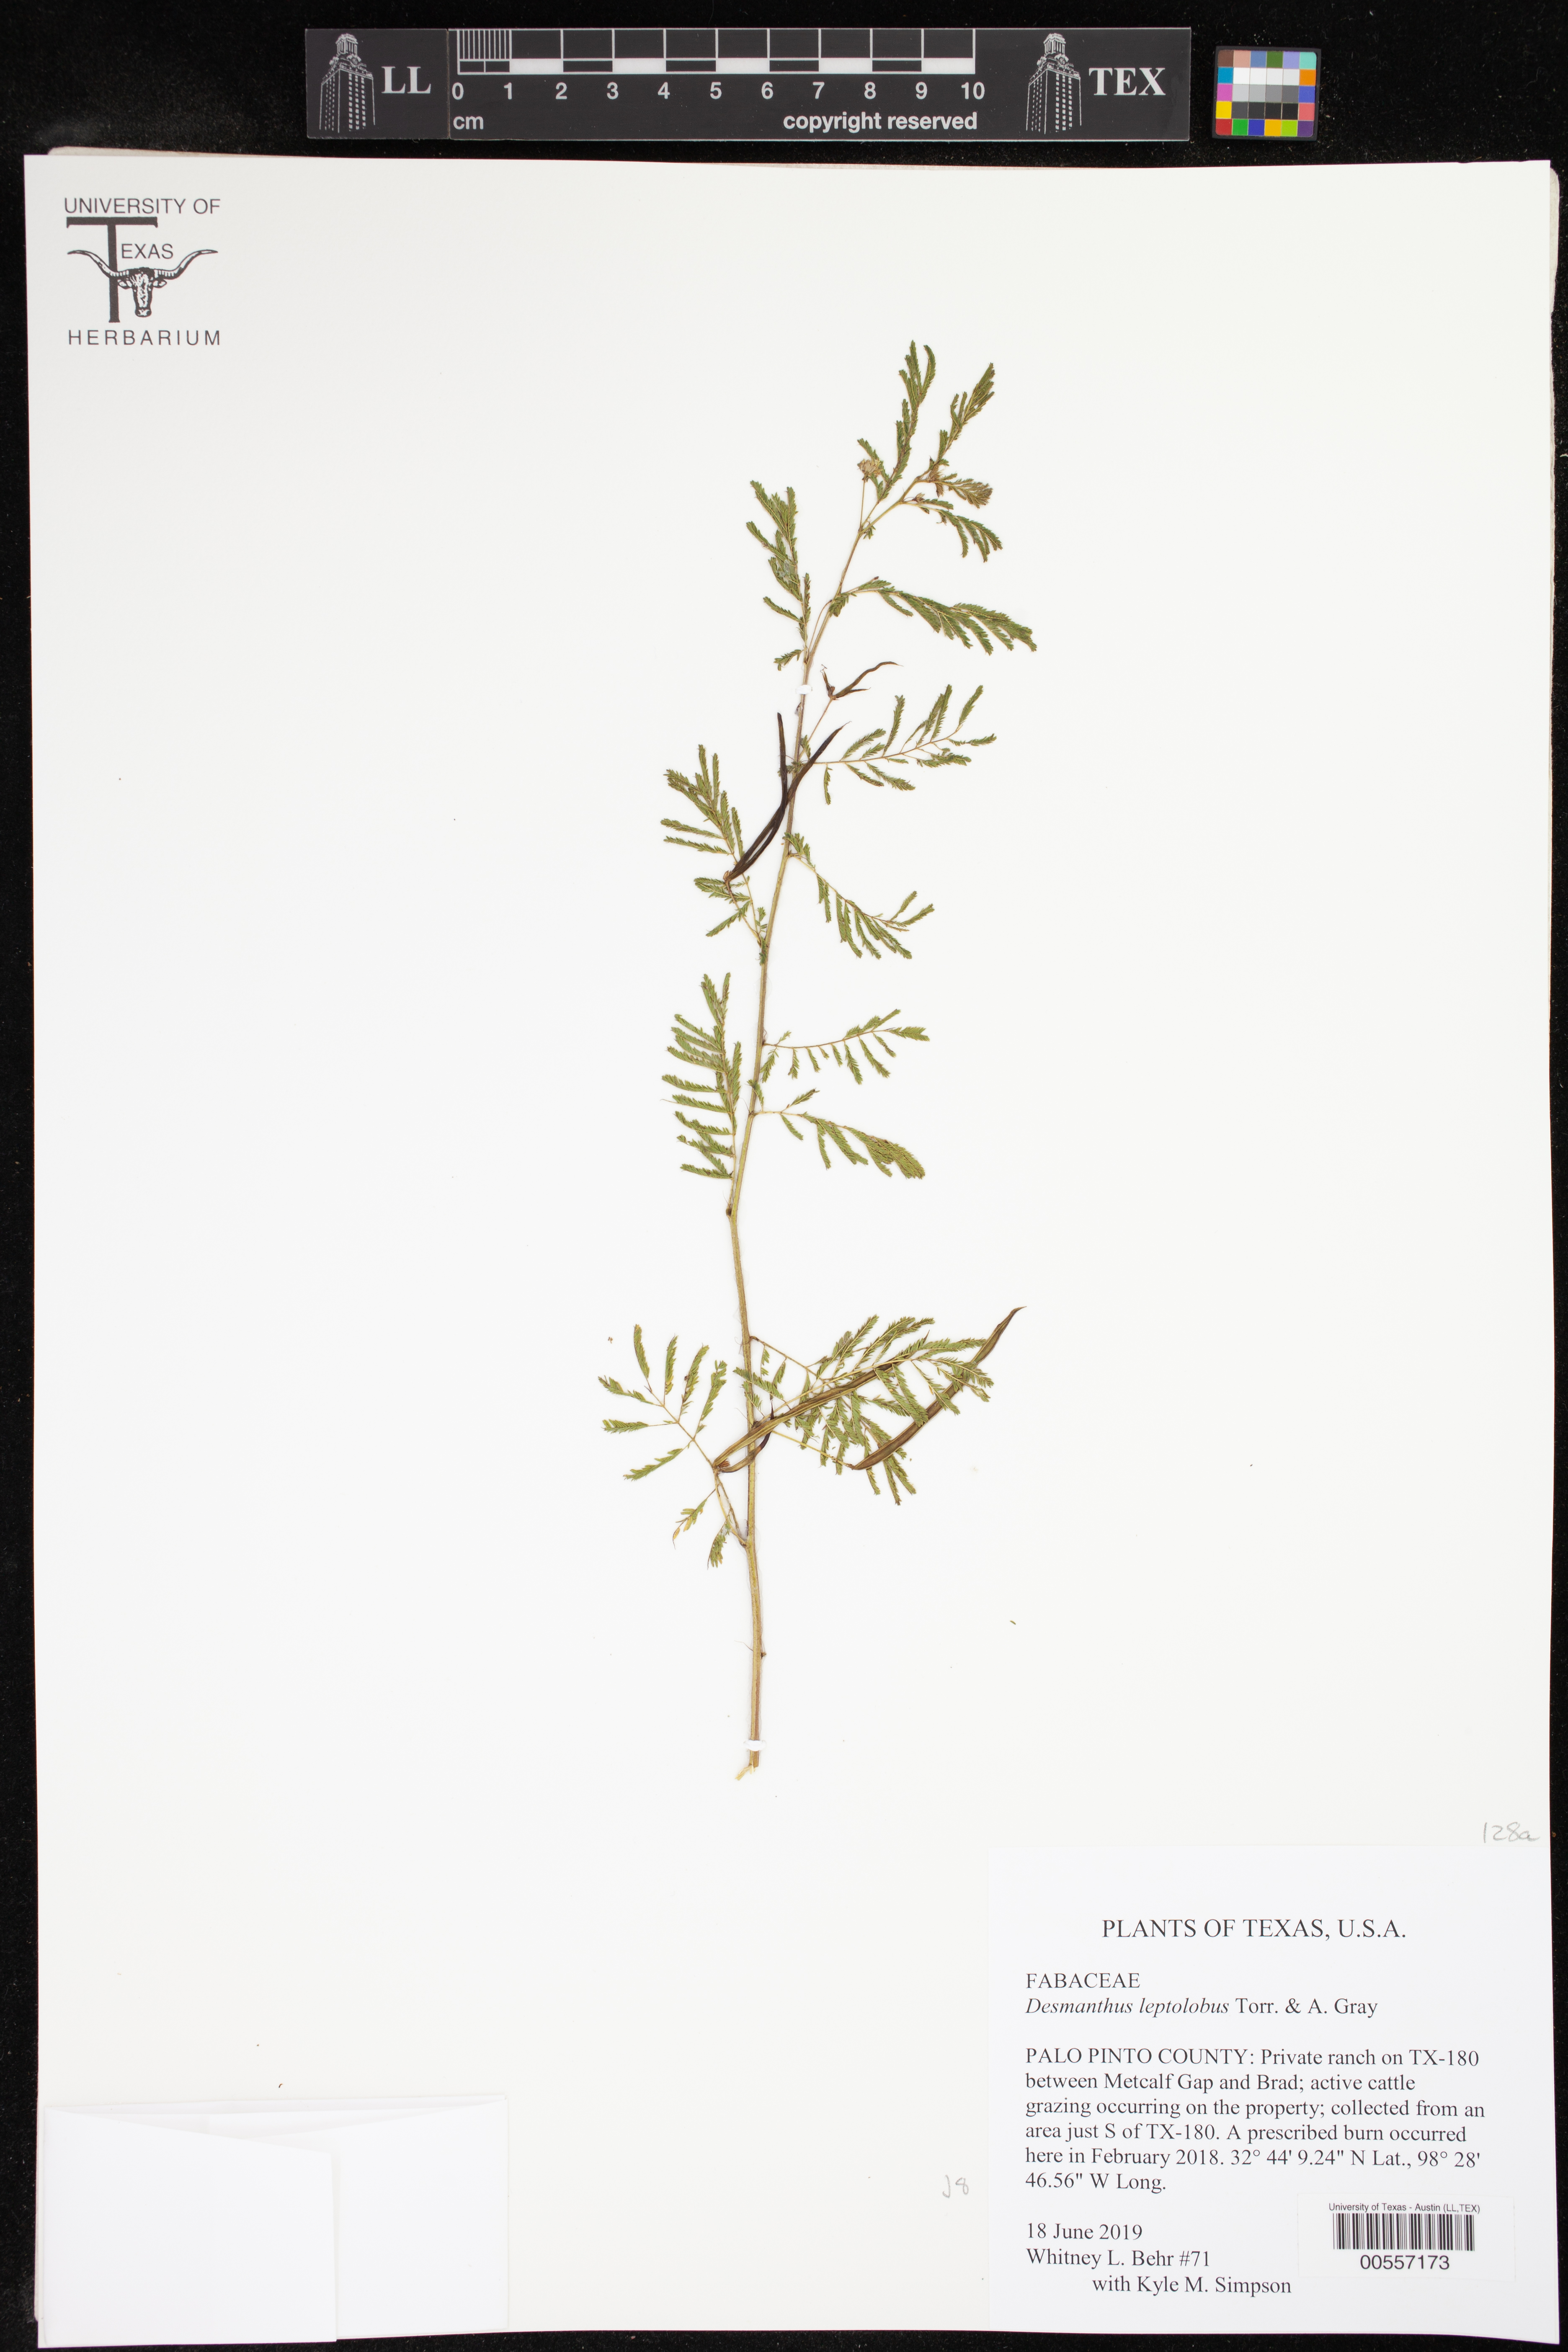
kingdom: Plantae
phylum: Tracheophyta
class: Magnoliopsida
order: Fabales
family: Fabaceae
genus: Desmanthus
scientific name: Desmanthus leptolobus
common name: Prairie-mimosa
